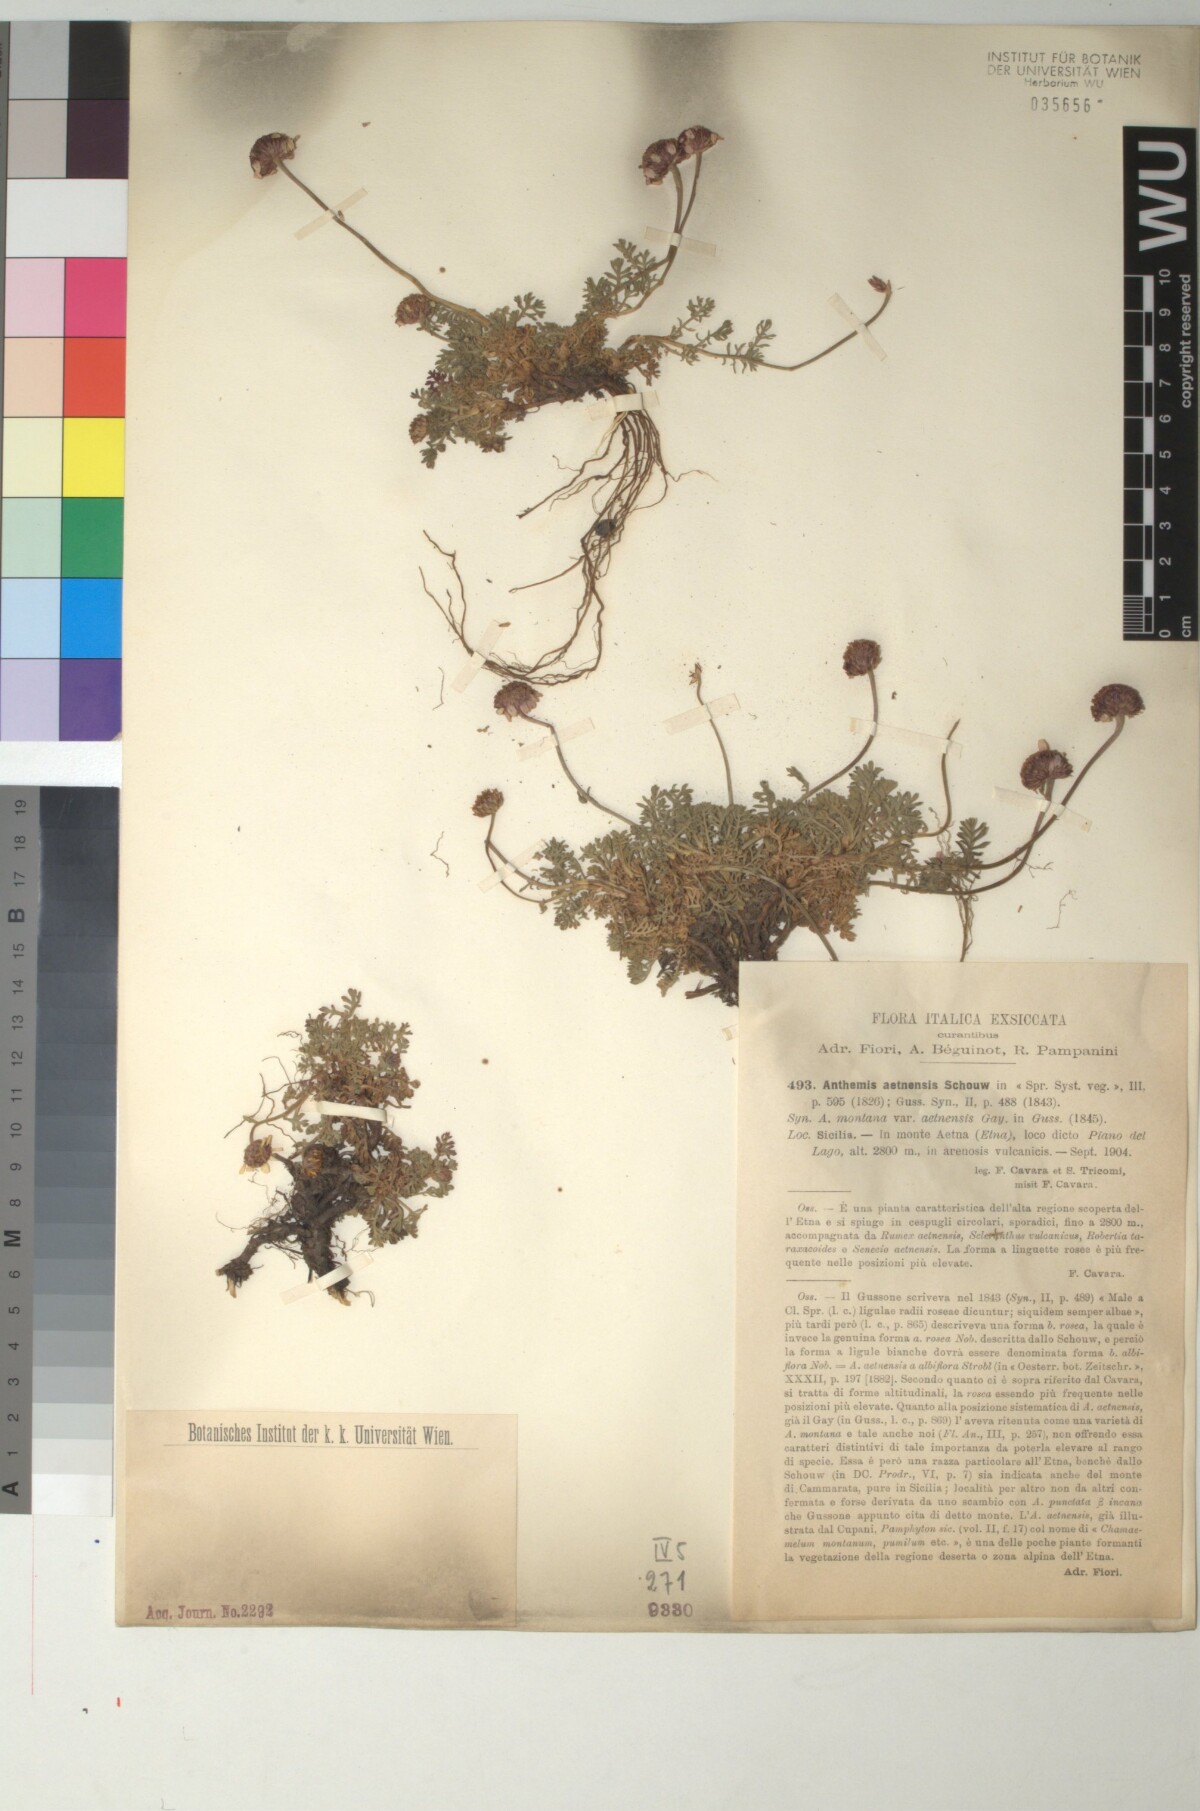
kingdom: Plantae
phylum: Tracheophyta
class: Magnoliopsida
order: Asterales
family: Asteraceae
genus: Anthemis
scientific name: Anthemis aetnensis
